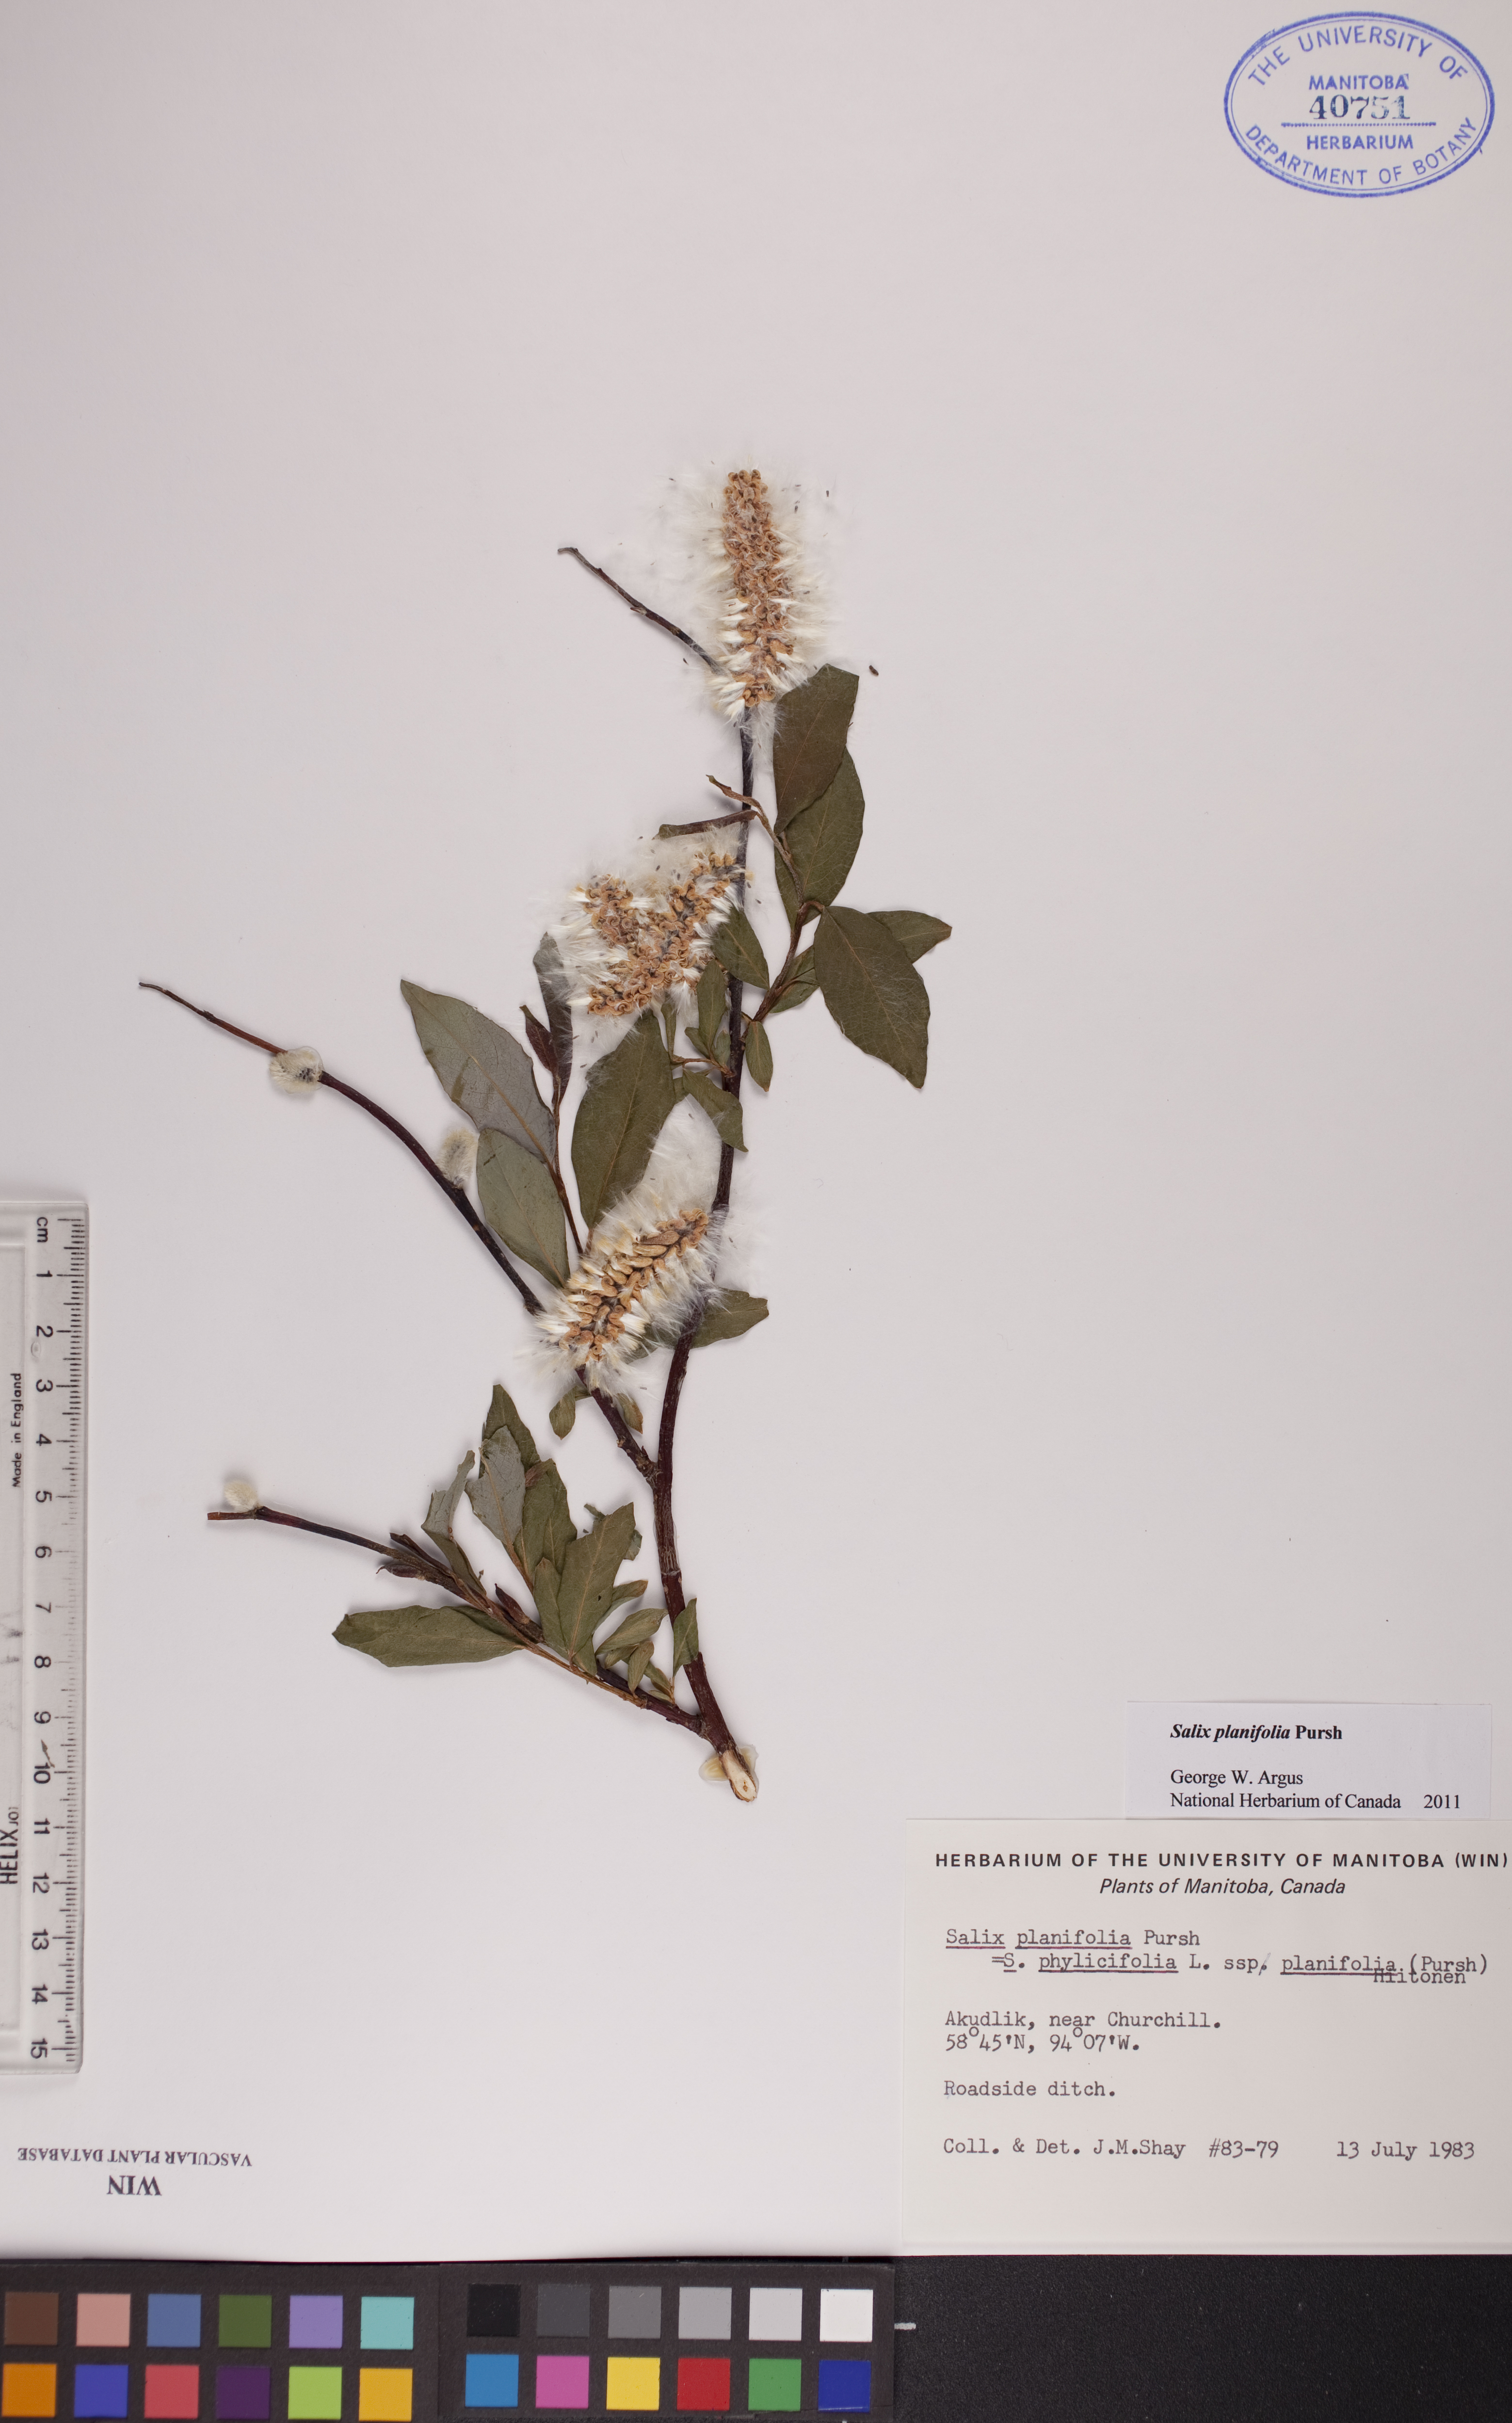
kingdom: Plantae
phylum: Tracheophyta
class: Magnoliopsida
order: Malpighiales
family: Salicaceae
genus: Salix
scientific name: Salix planifolia
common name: Mountain willow
